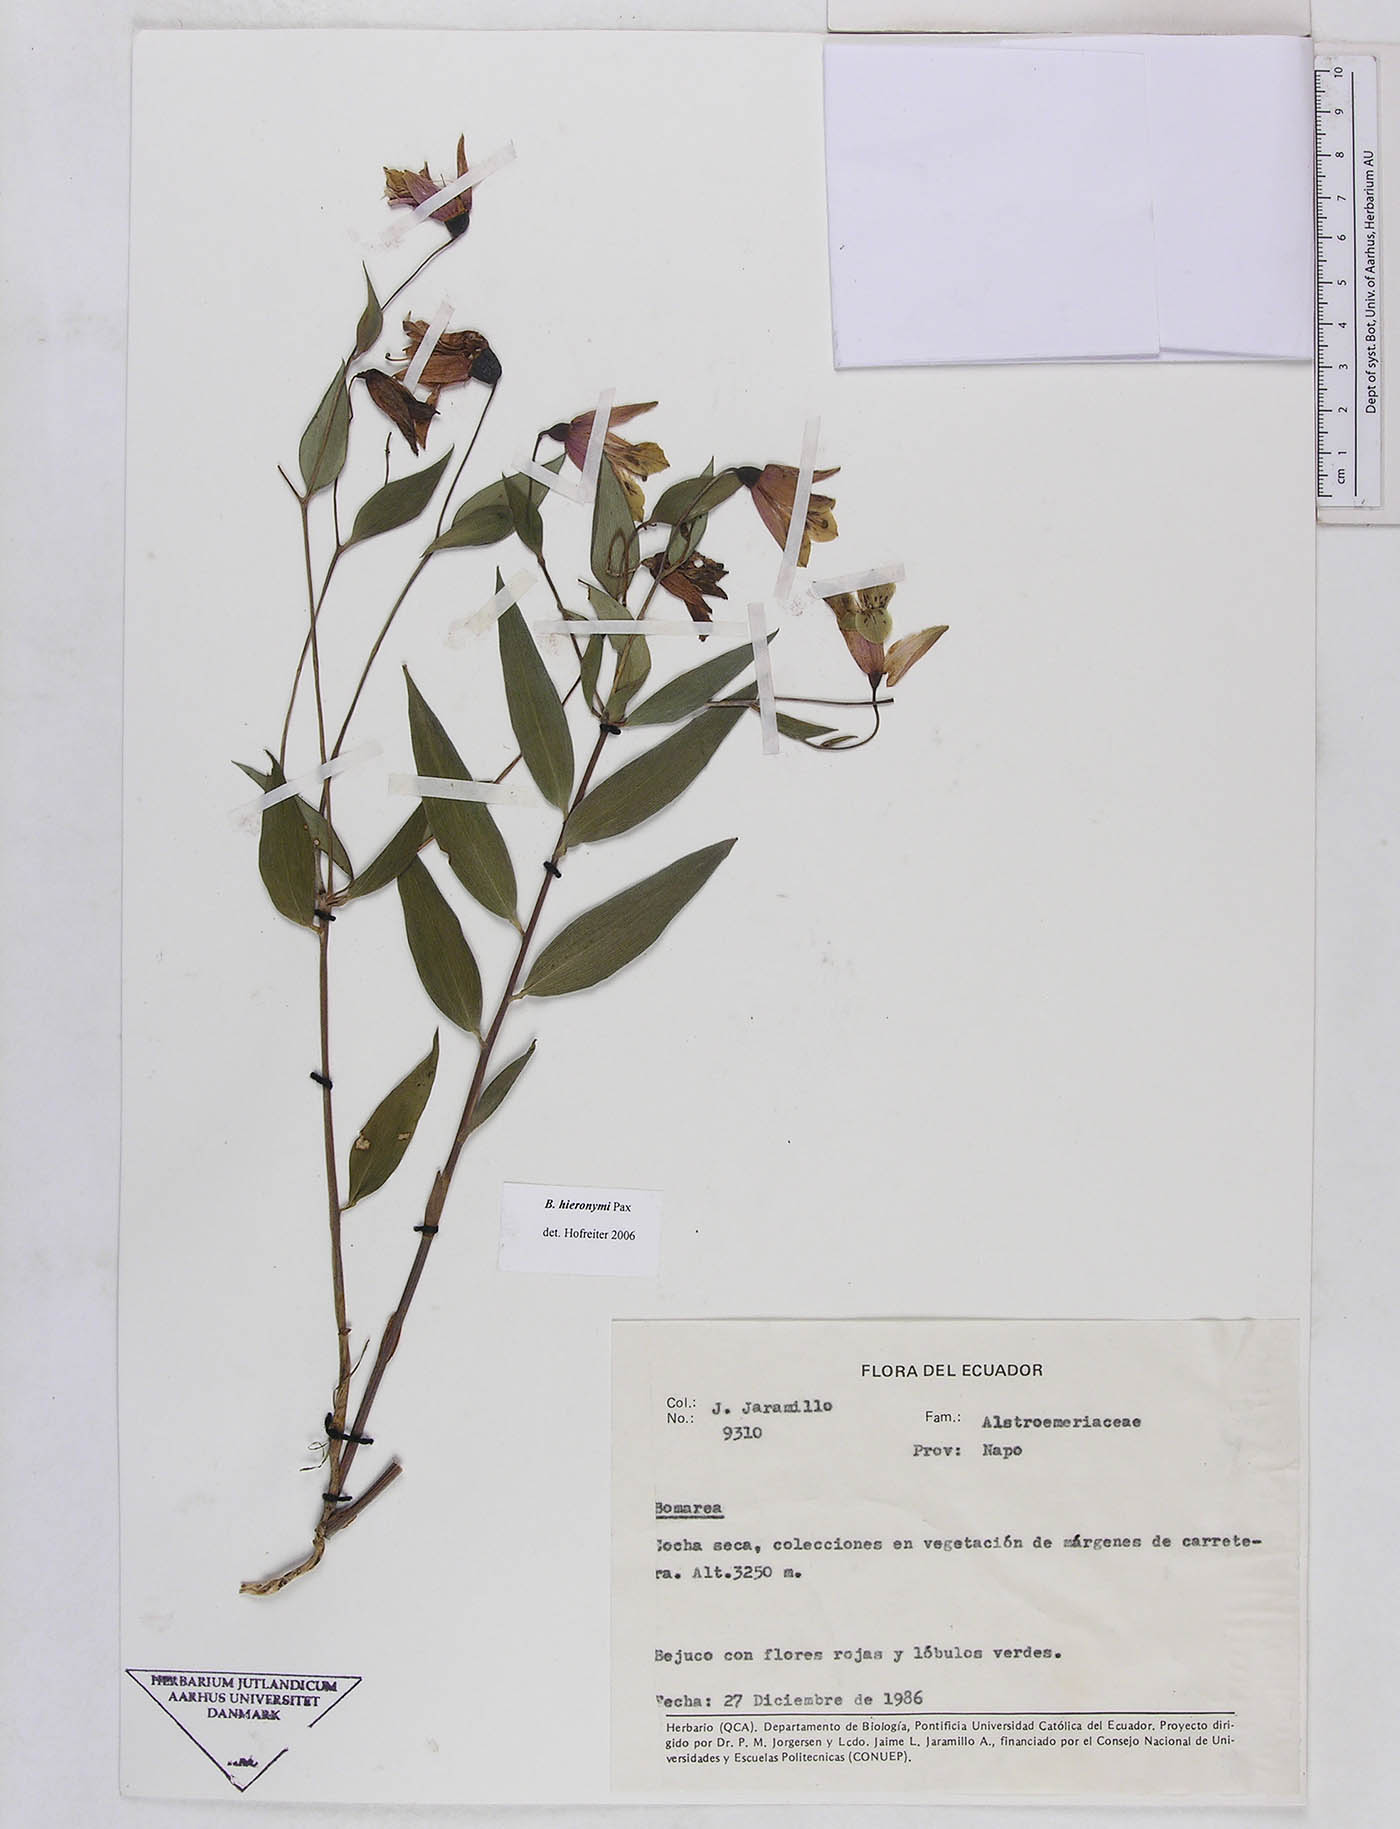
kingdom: Plantae
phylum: Tracheophyta
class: Liliopsida
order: Liliales
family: Alstroemeriaceae
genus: Bomarea
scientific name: Bomarea hieronymi
